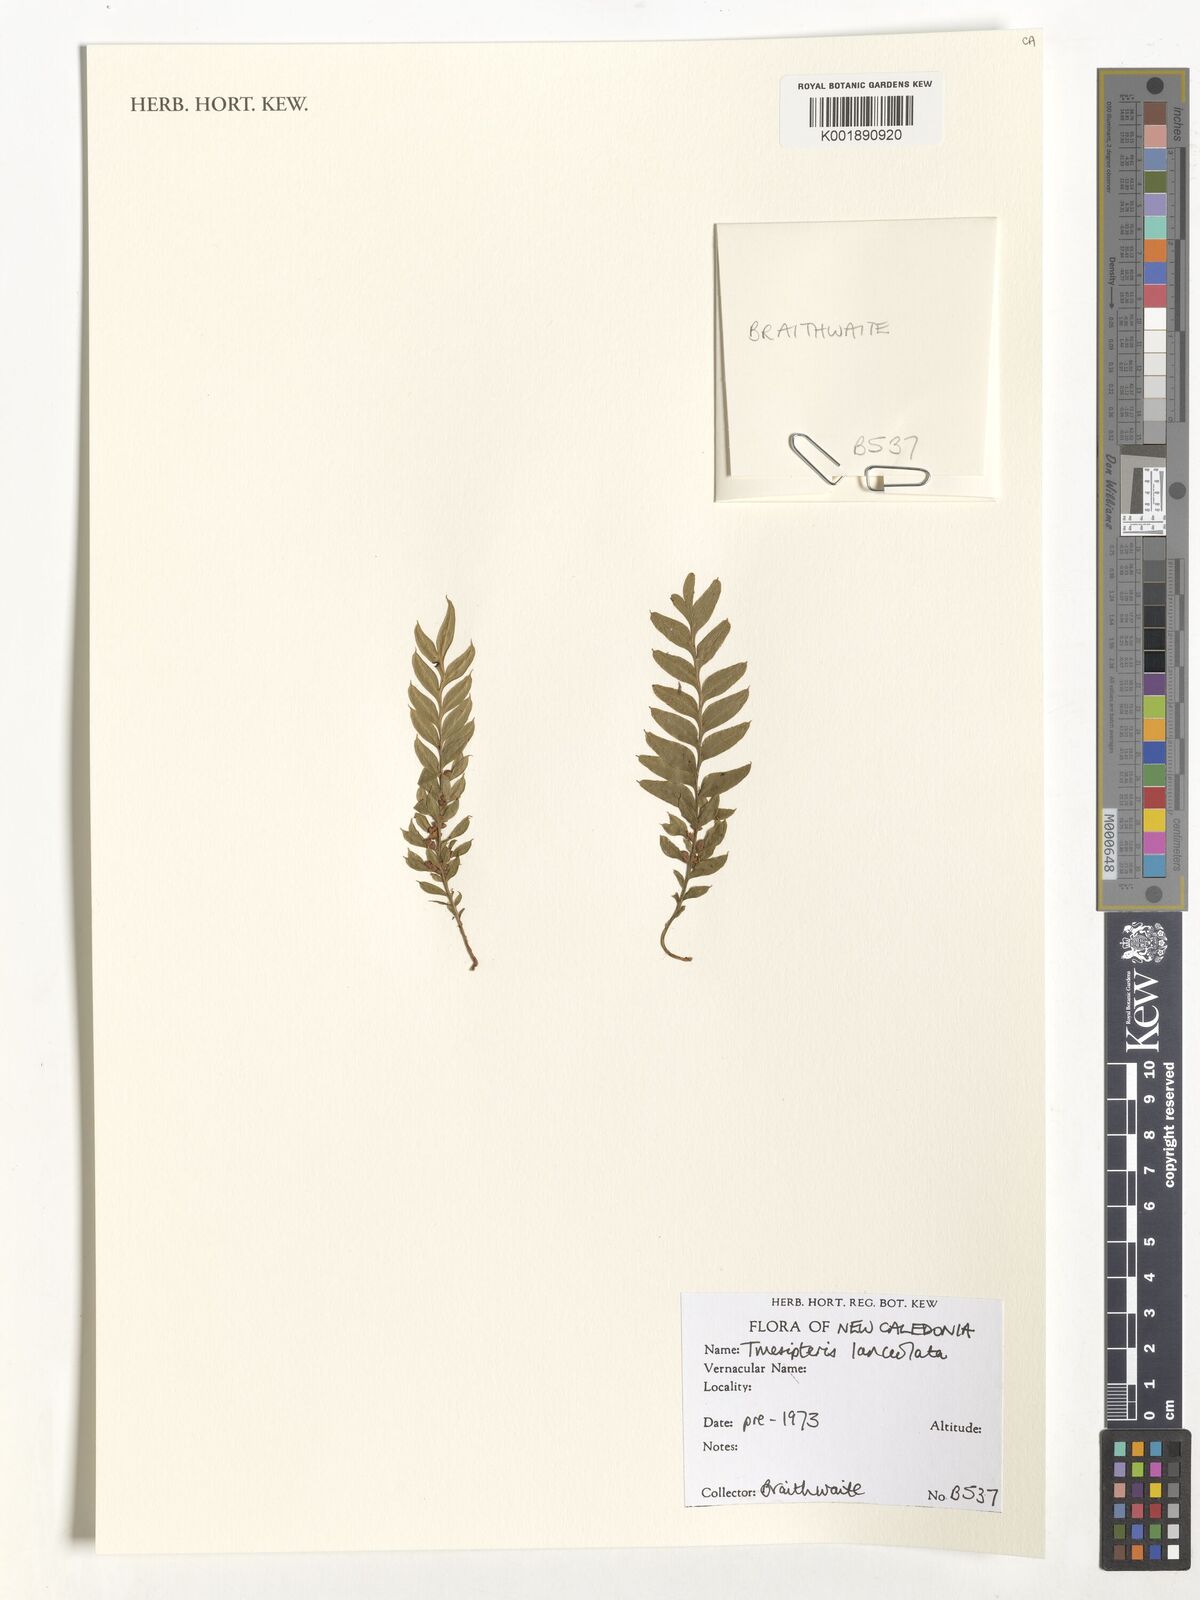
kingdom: Plantae
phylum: Tracheophyta
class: Polypodiopsida
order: Psilotales
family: Psilotaceae
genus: Tmesipteris
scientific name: Tmesipteris lanceolata
